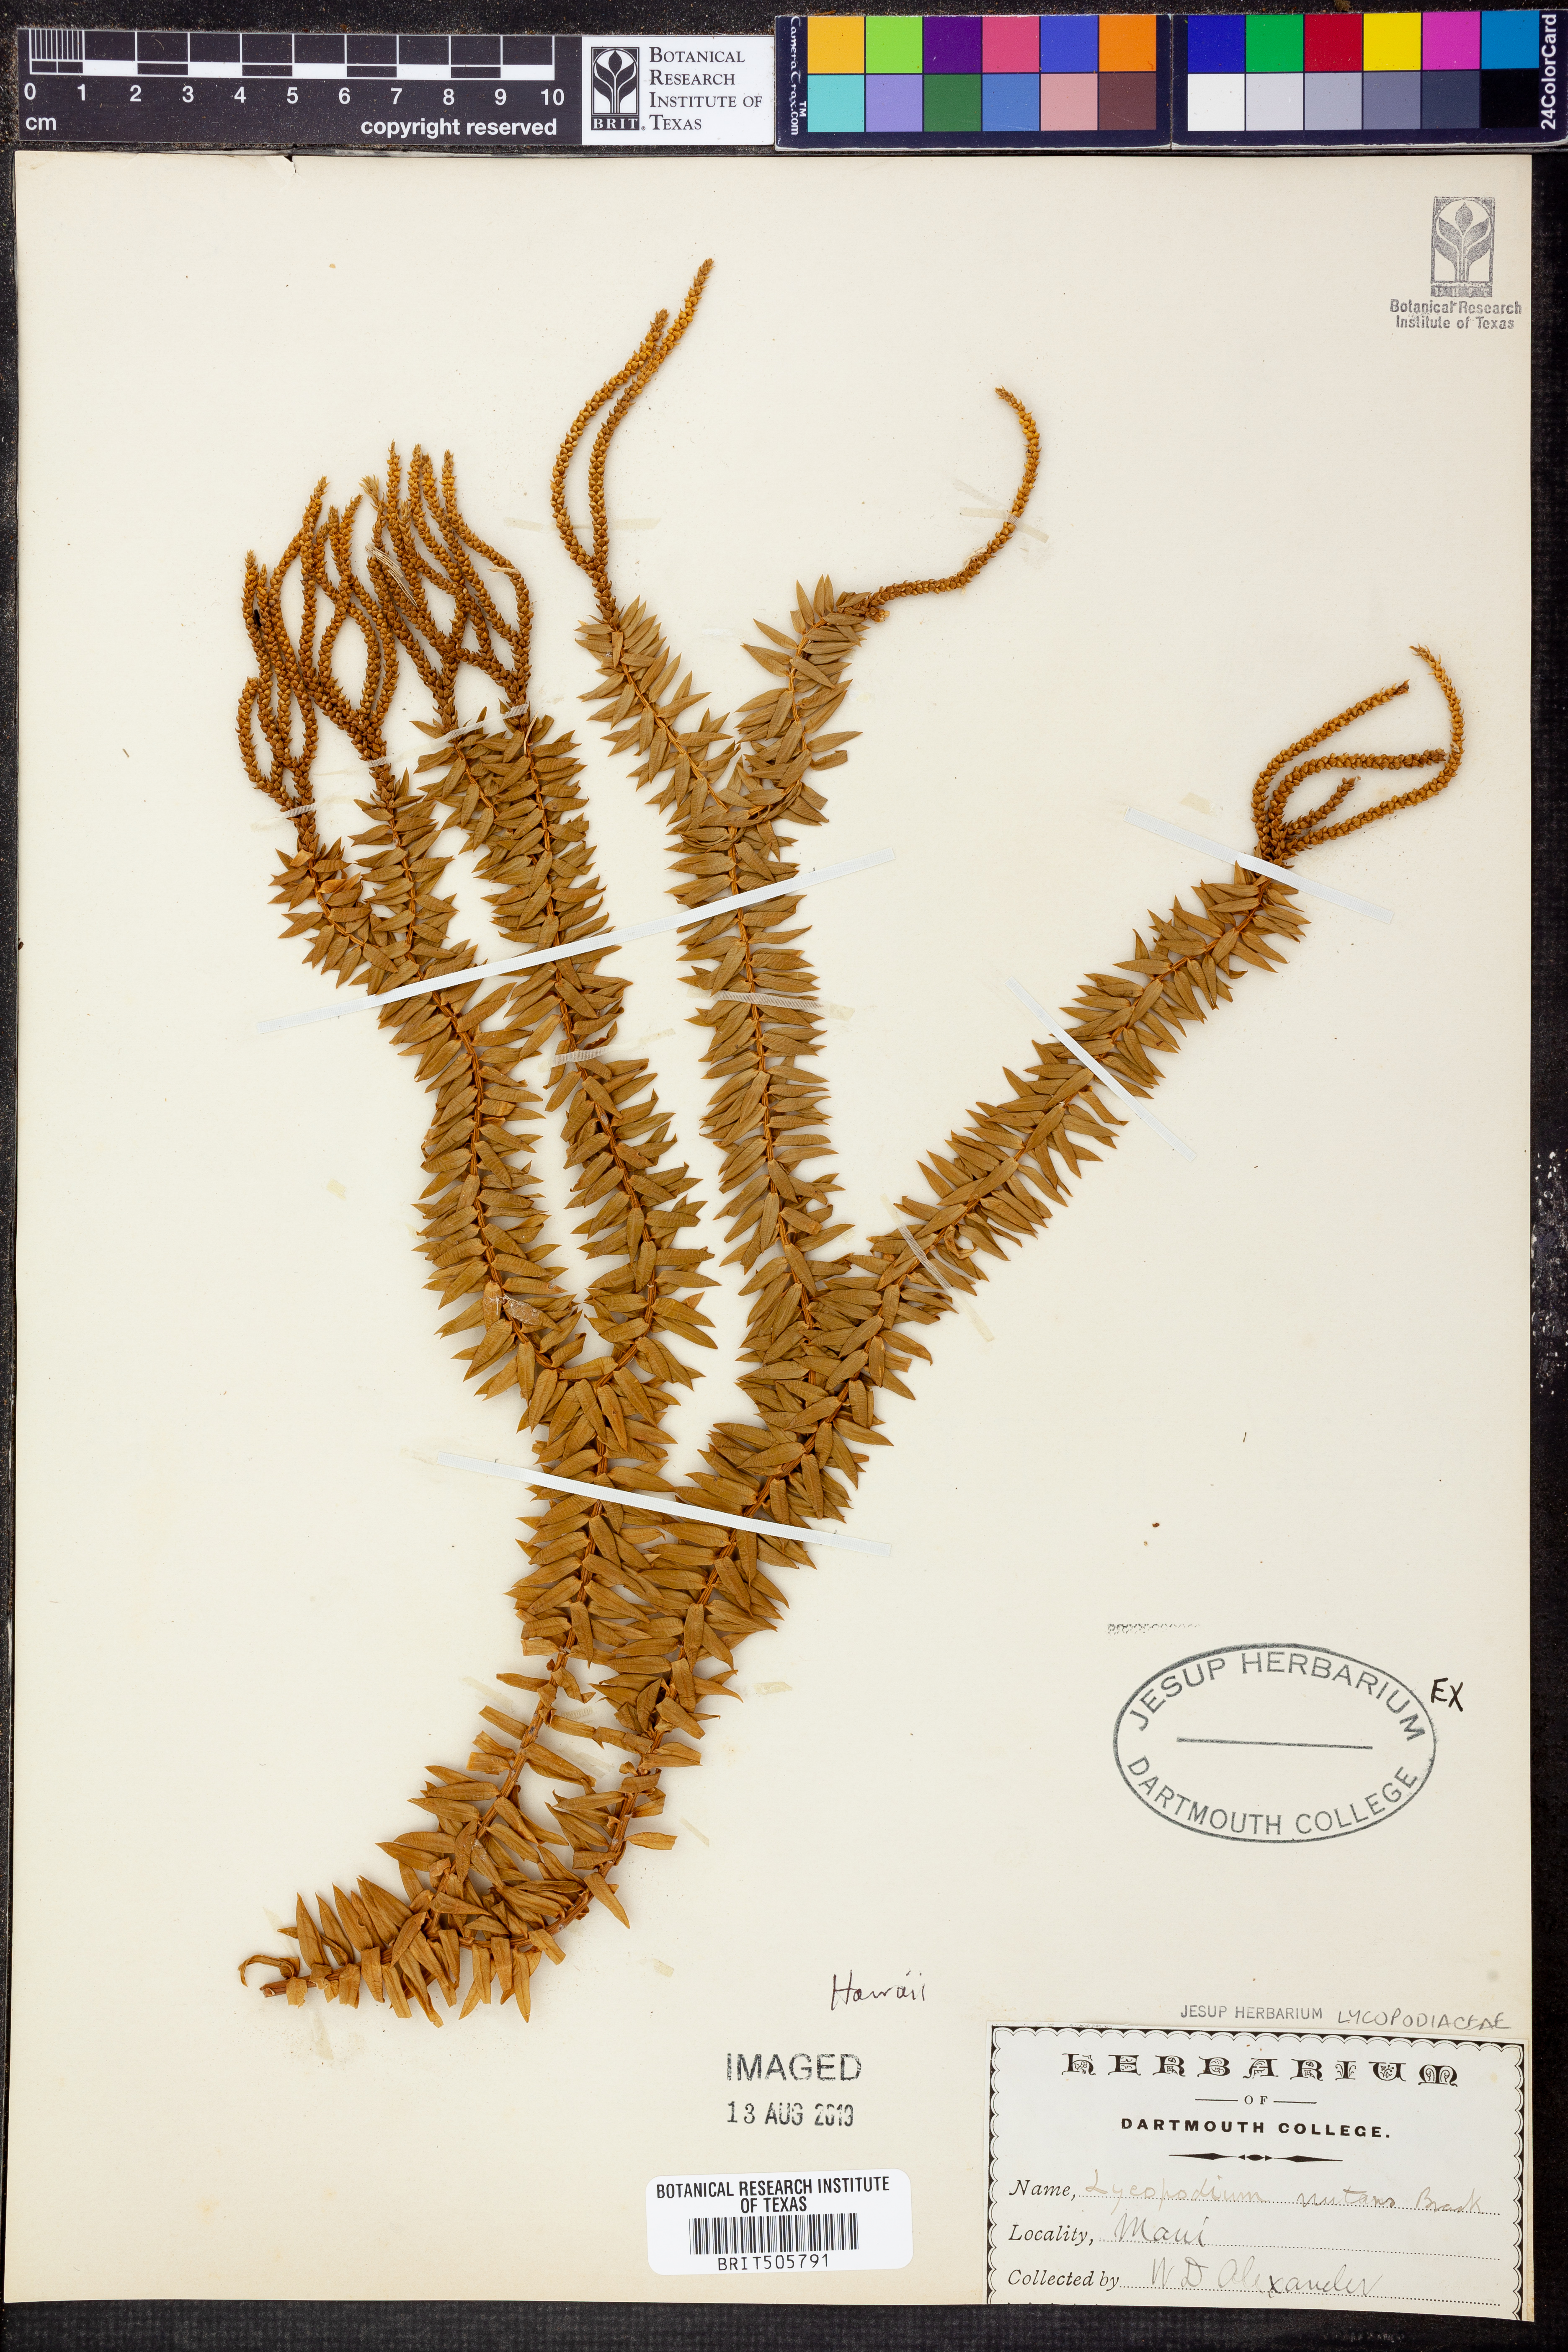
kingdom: Plantae
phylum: Tracheophyta
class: Lycopodiopsida
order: Lycopodiales
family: Lycopodiaceae
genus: Phlegmariurus
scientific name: Phlegmariurus nutans
